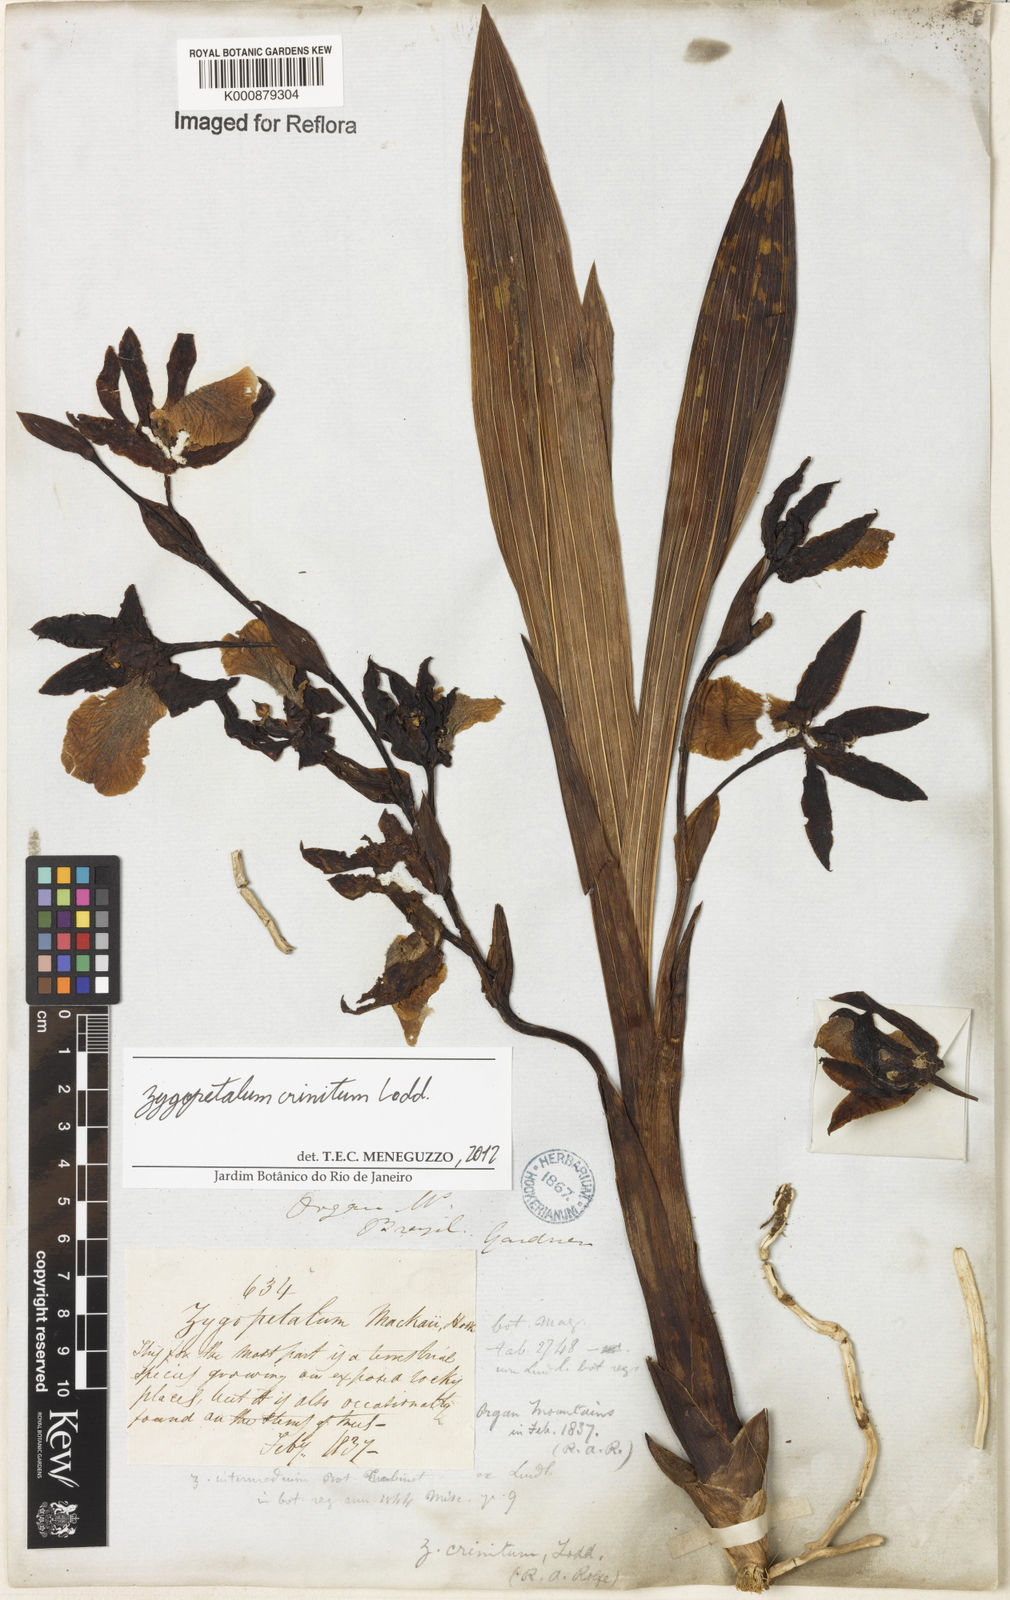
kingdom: Plantae
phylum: Tracheophyta
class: Liliopsida
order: Asparagales
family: Orchidaceae
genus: Zygopetalum
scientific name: Zygopetalum crinitum
